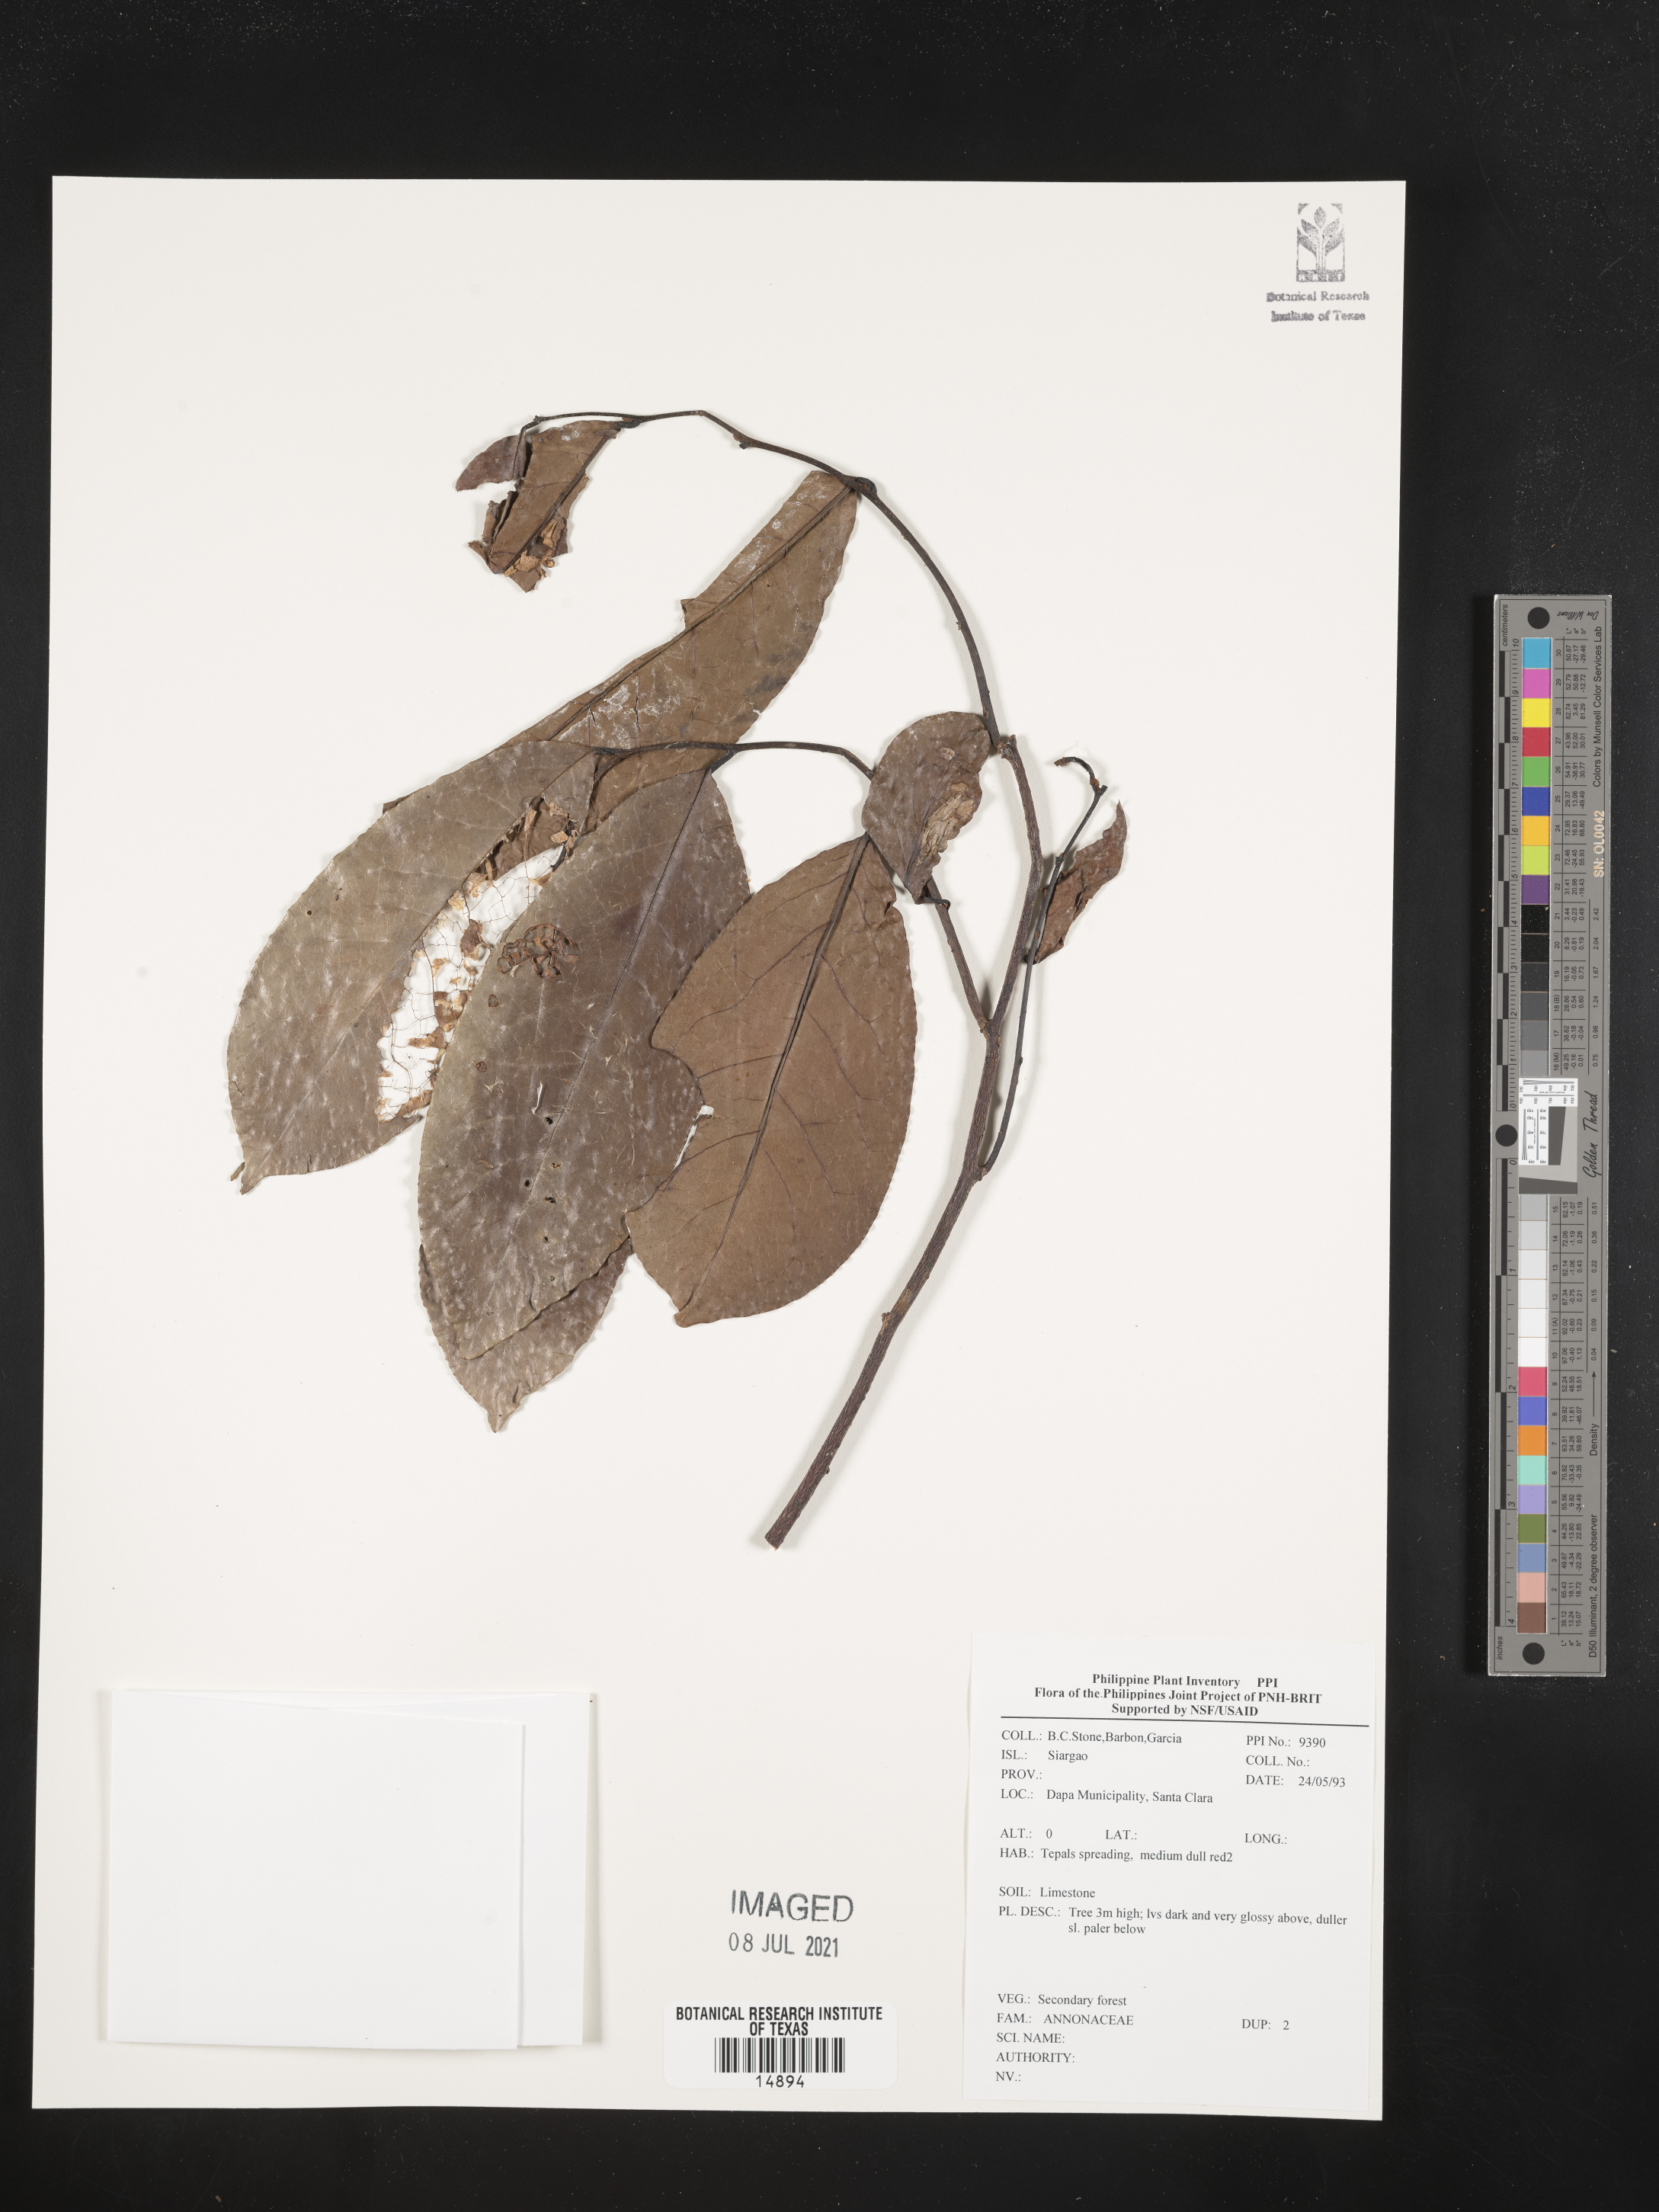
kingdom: Plantae
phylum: Tracheophyta
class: Magnoliopsida
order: Magnoliales
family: Annonaceae
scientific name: Annonaceae
